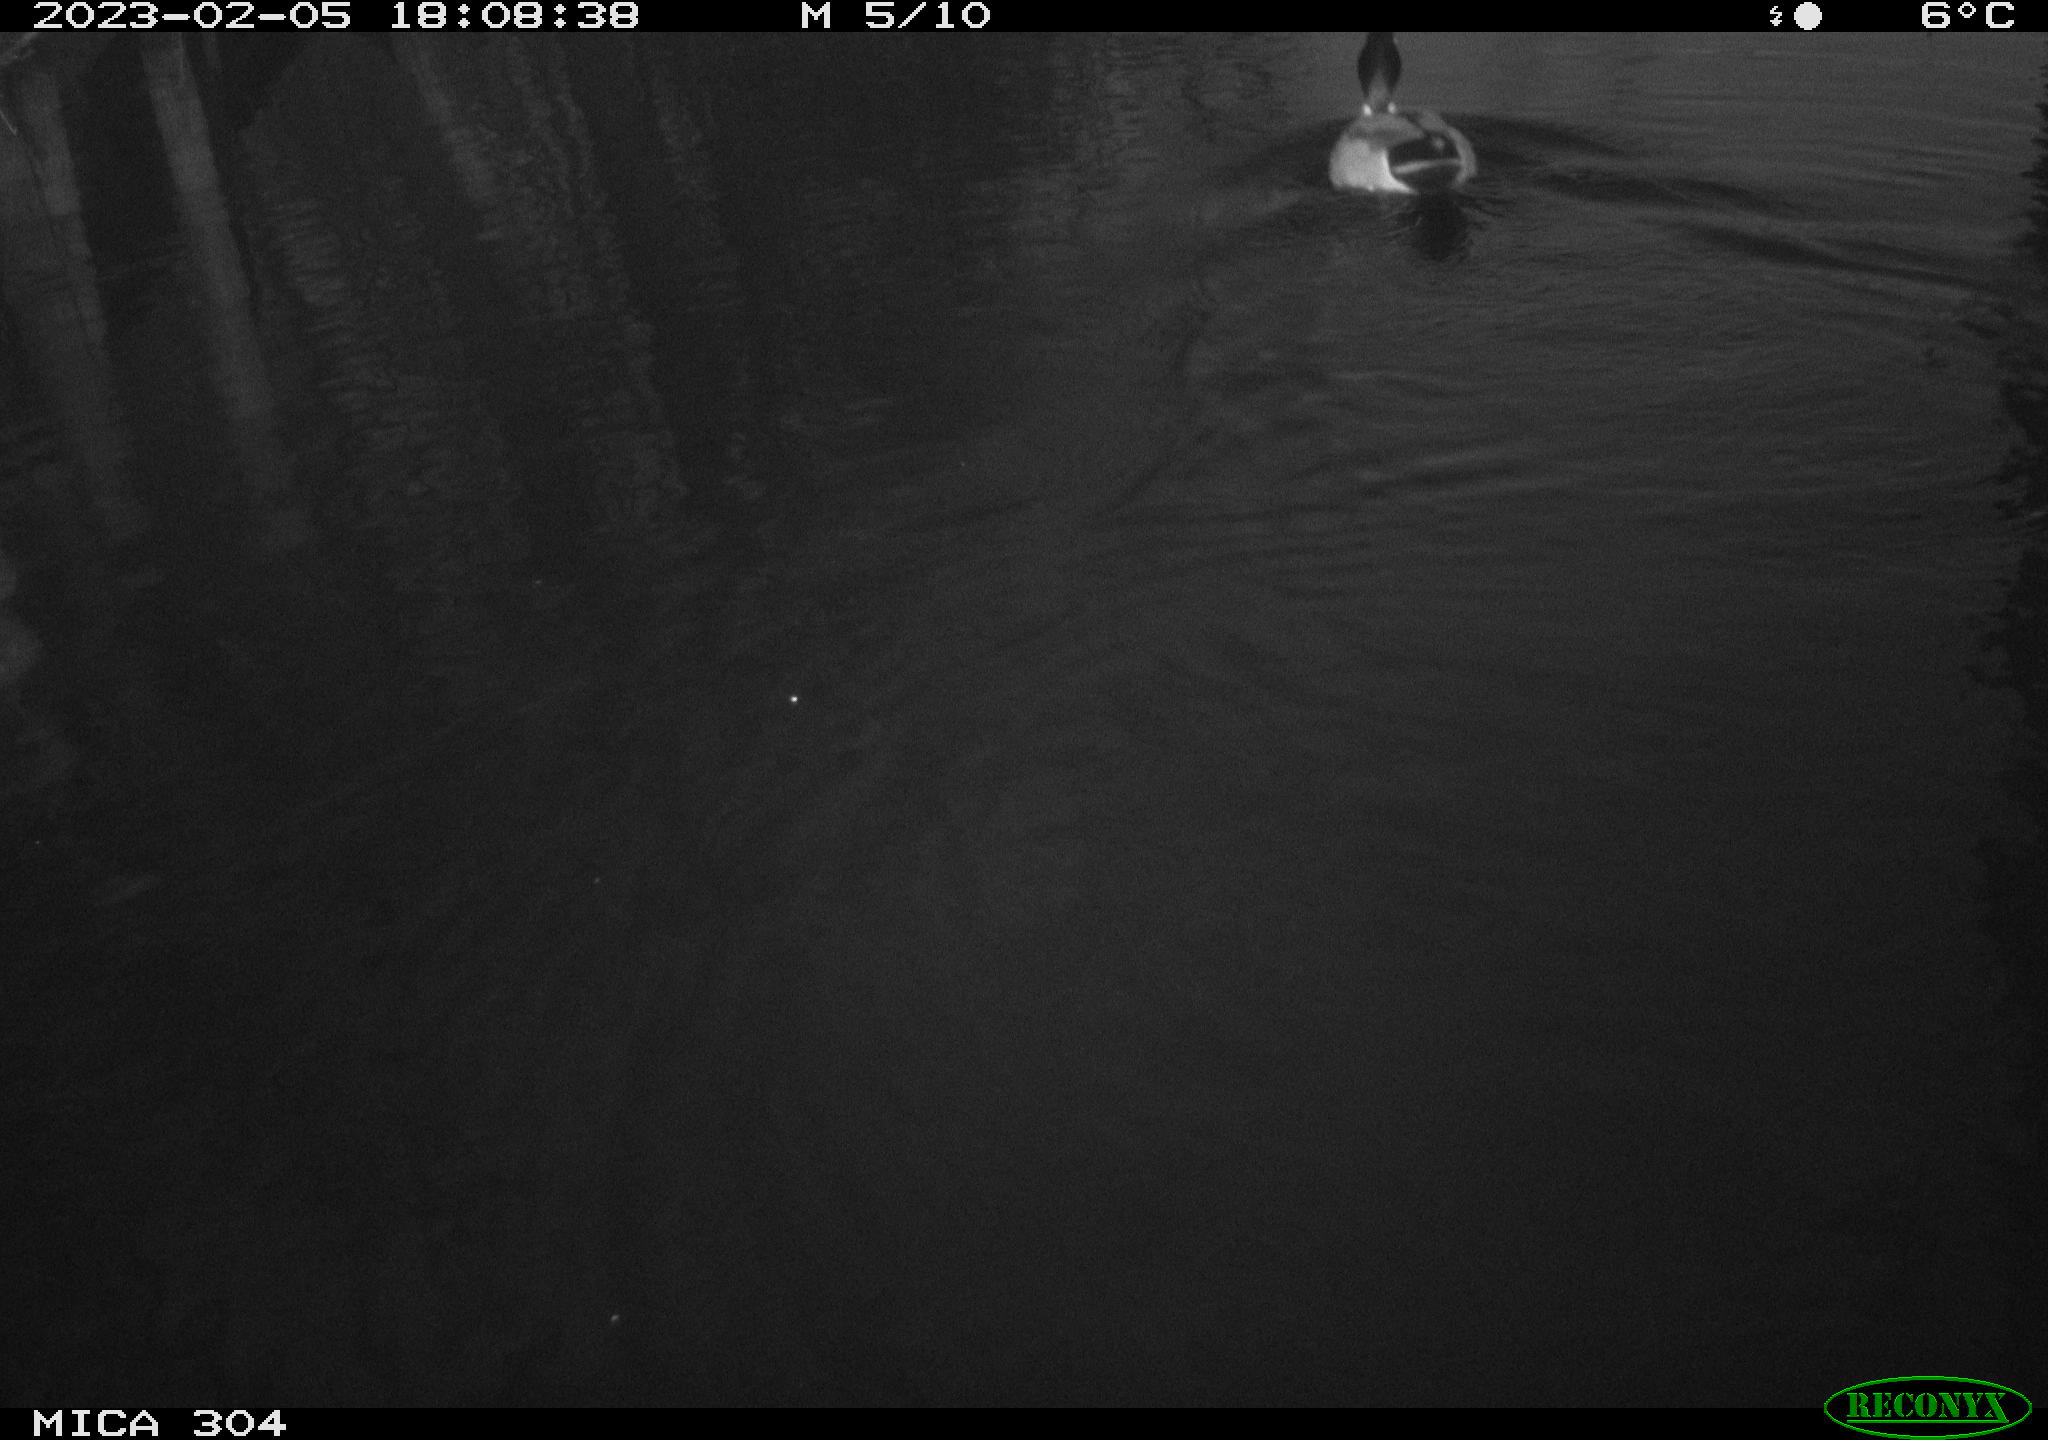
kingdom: Animalia
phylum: Chordata
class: Aves
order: Anseriformes
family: Anatidae
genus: Anas
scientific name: Anas
